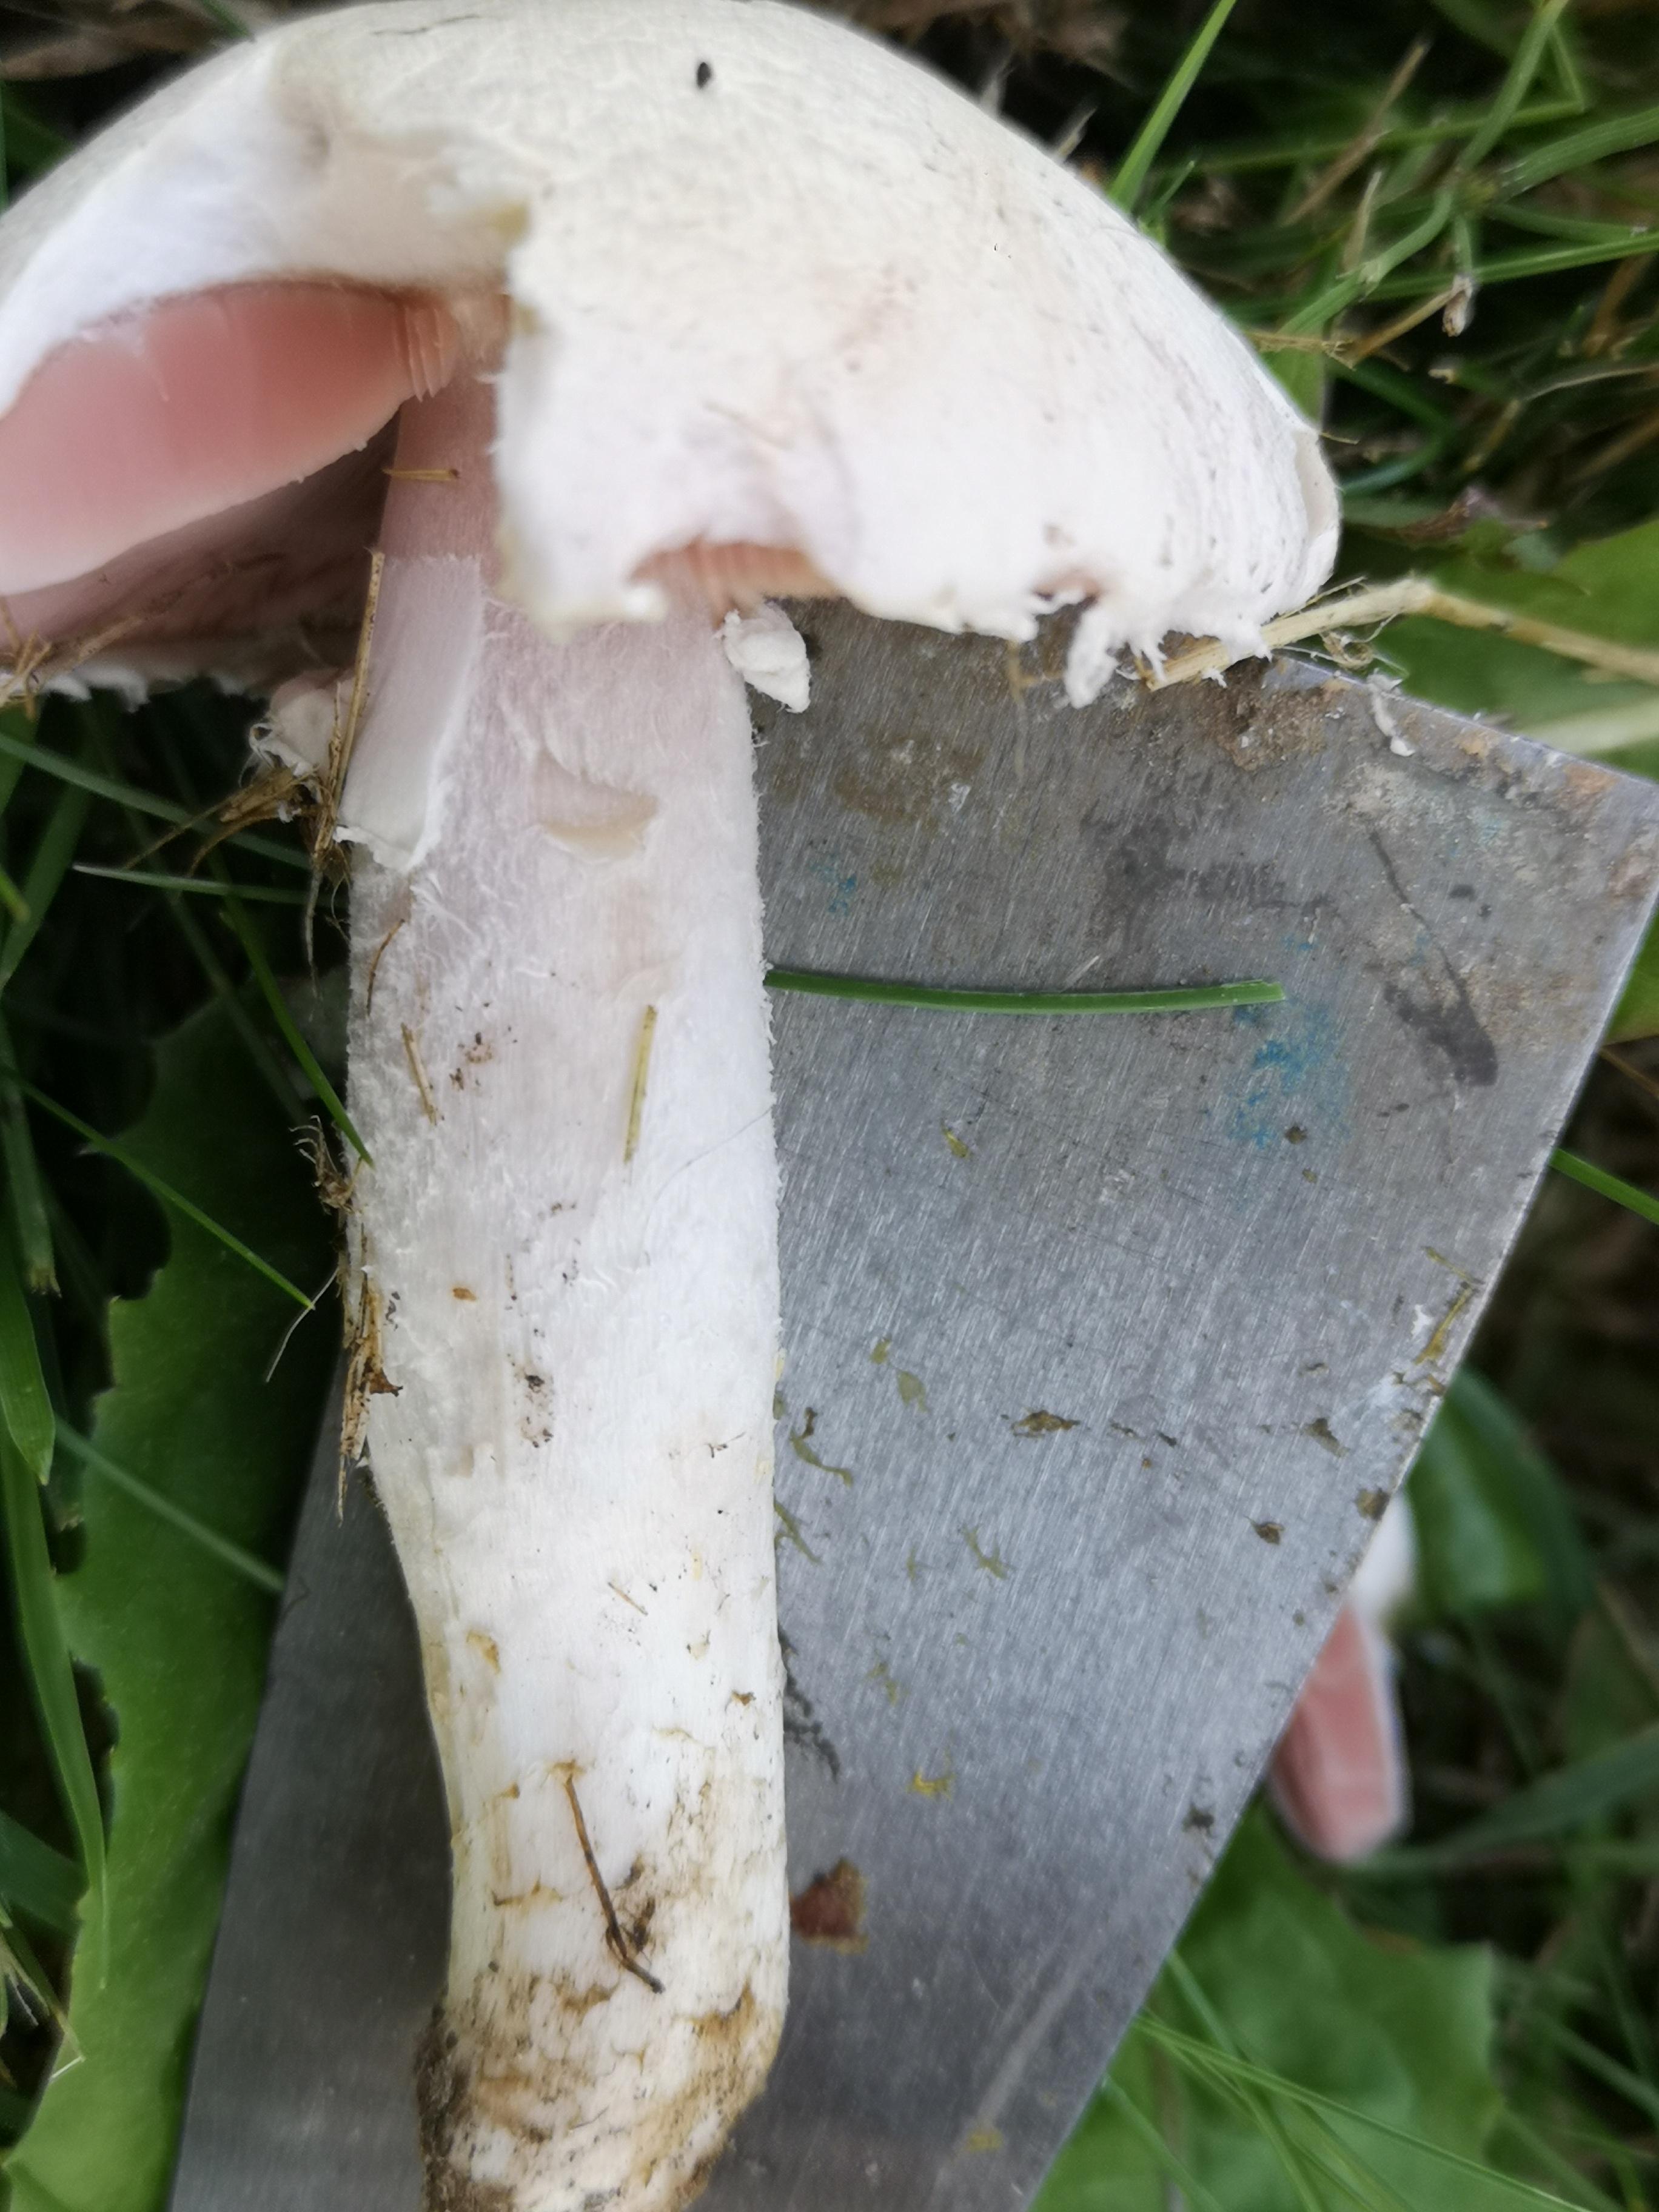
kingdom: Fungi
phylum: Basidiomycota
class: Agaricomycetes
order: Agaricales
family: Agaricaceae
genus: Agaricus
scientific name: Agaricus campestris
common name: mark-champignon
